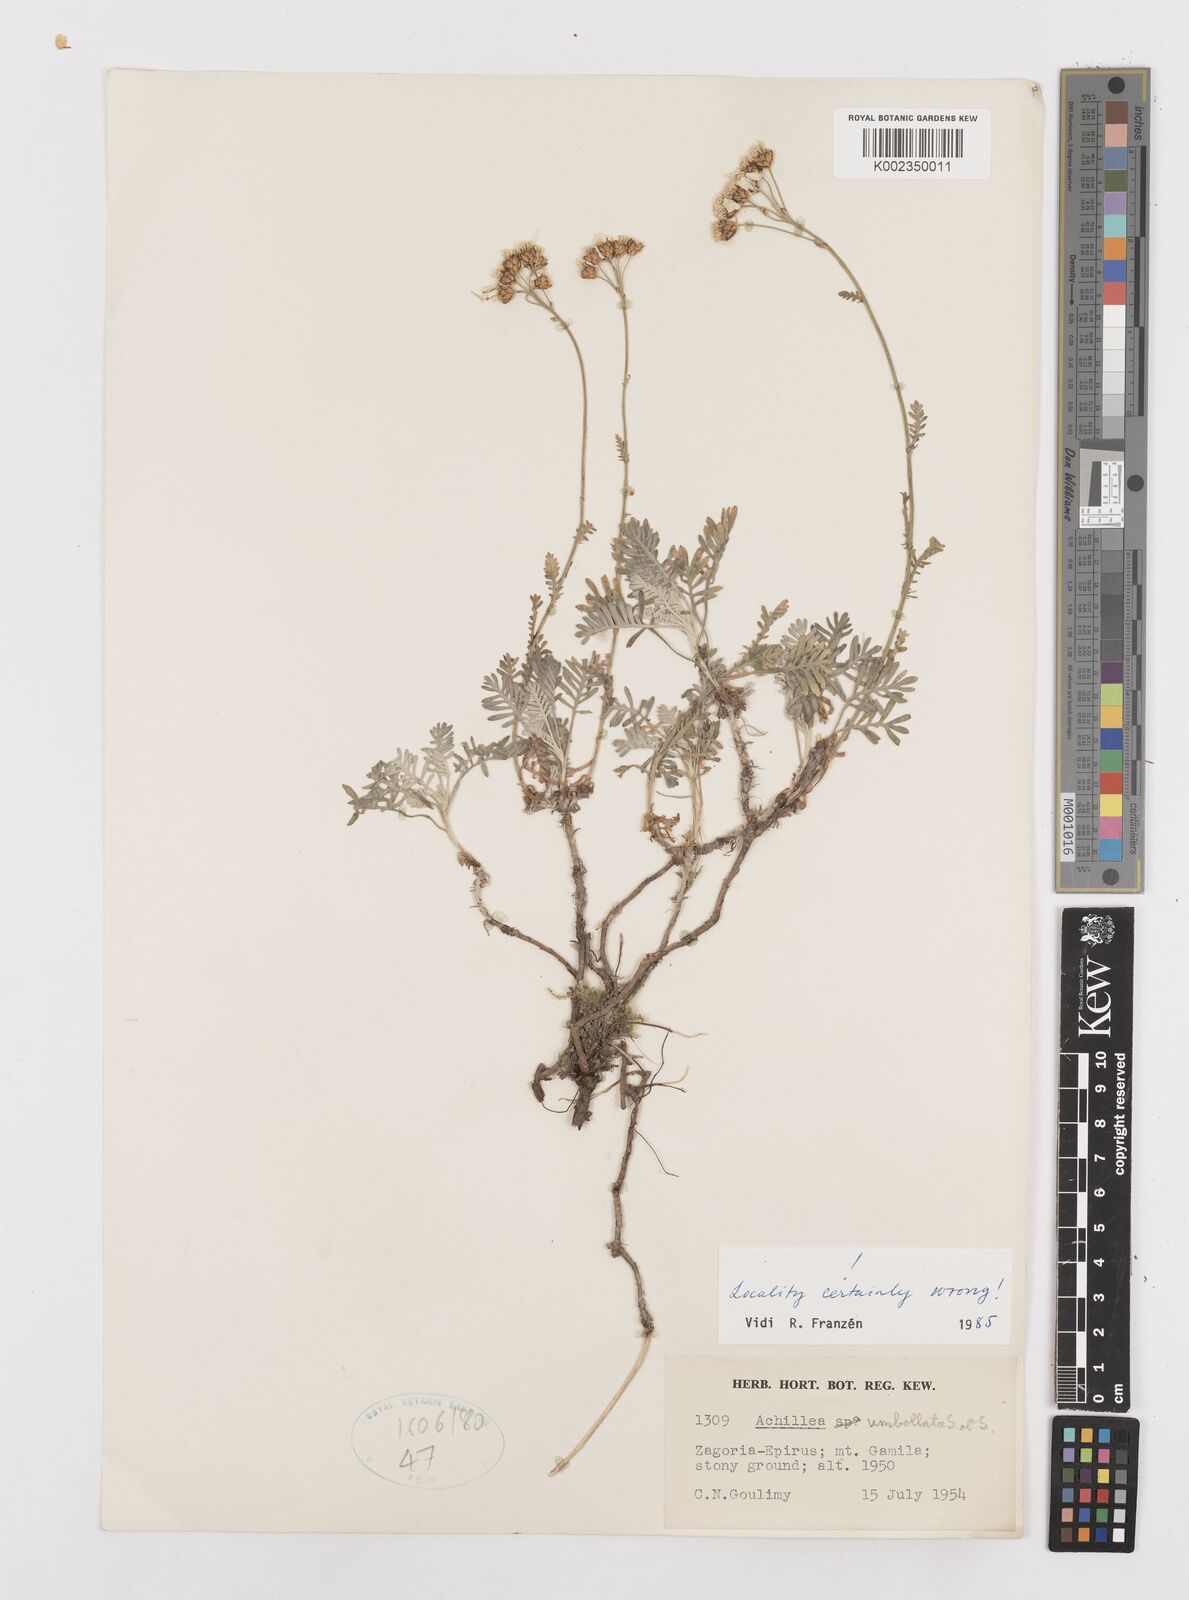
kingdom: Plantae
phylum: Tracheophyta
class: Magnoliopsida
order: Asterales
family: Asteraceae
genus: Achillea
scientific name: Achillea umbellata
